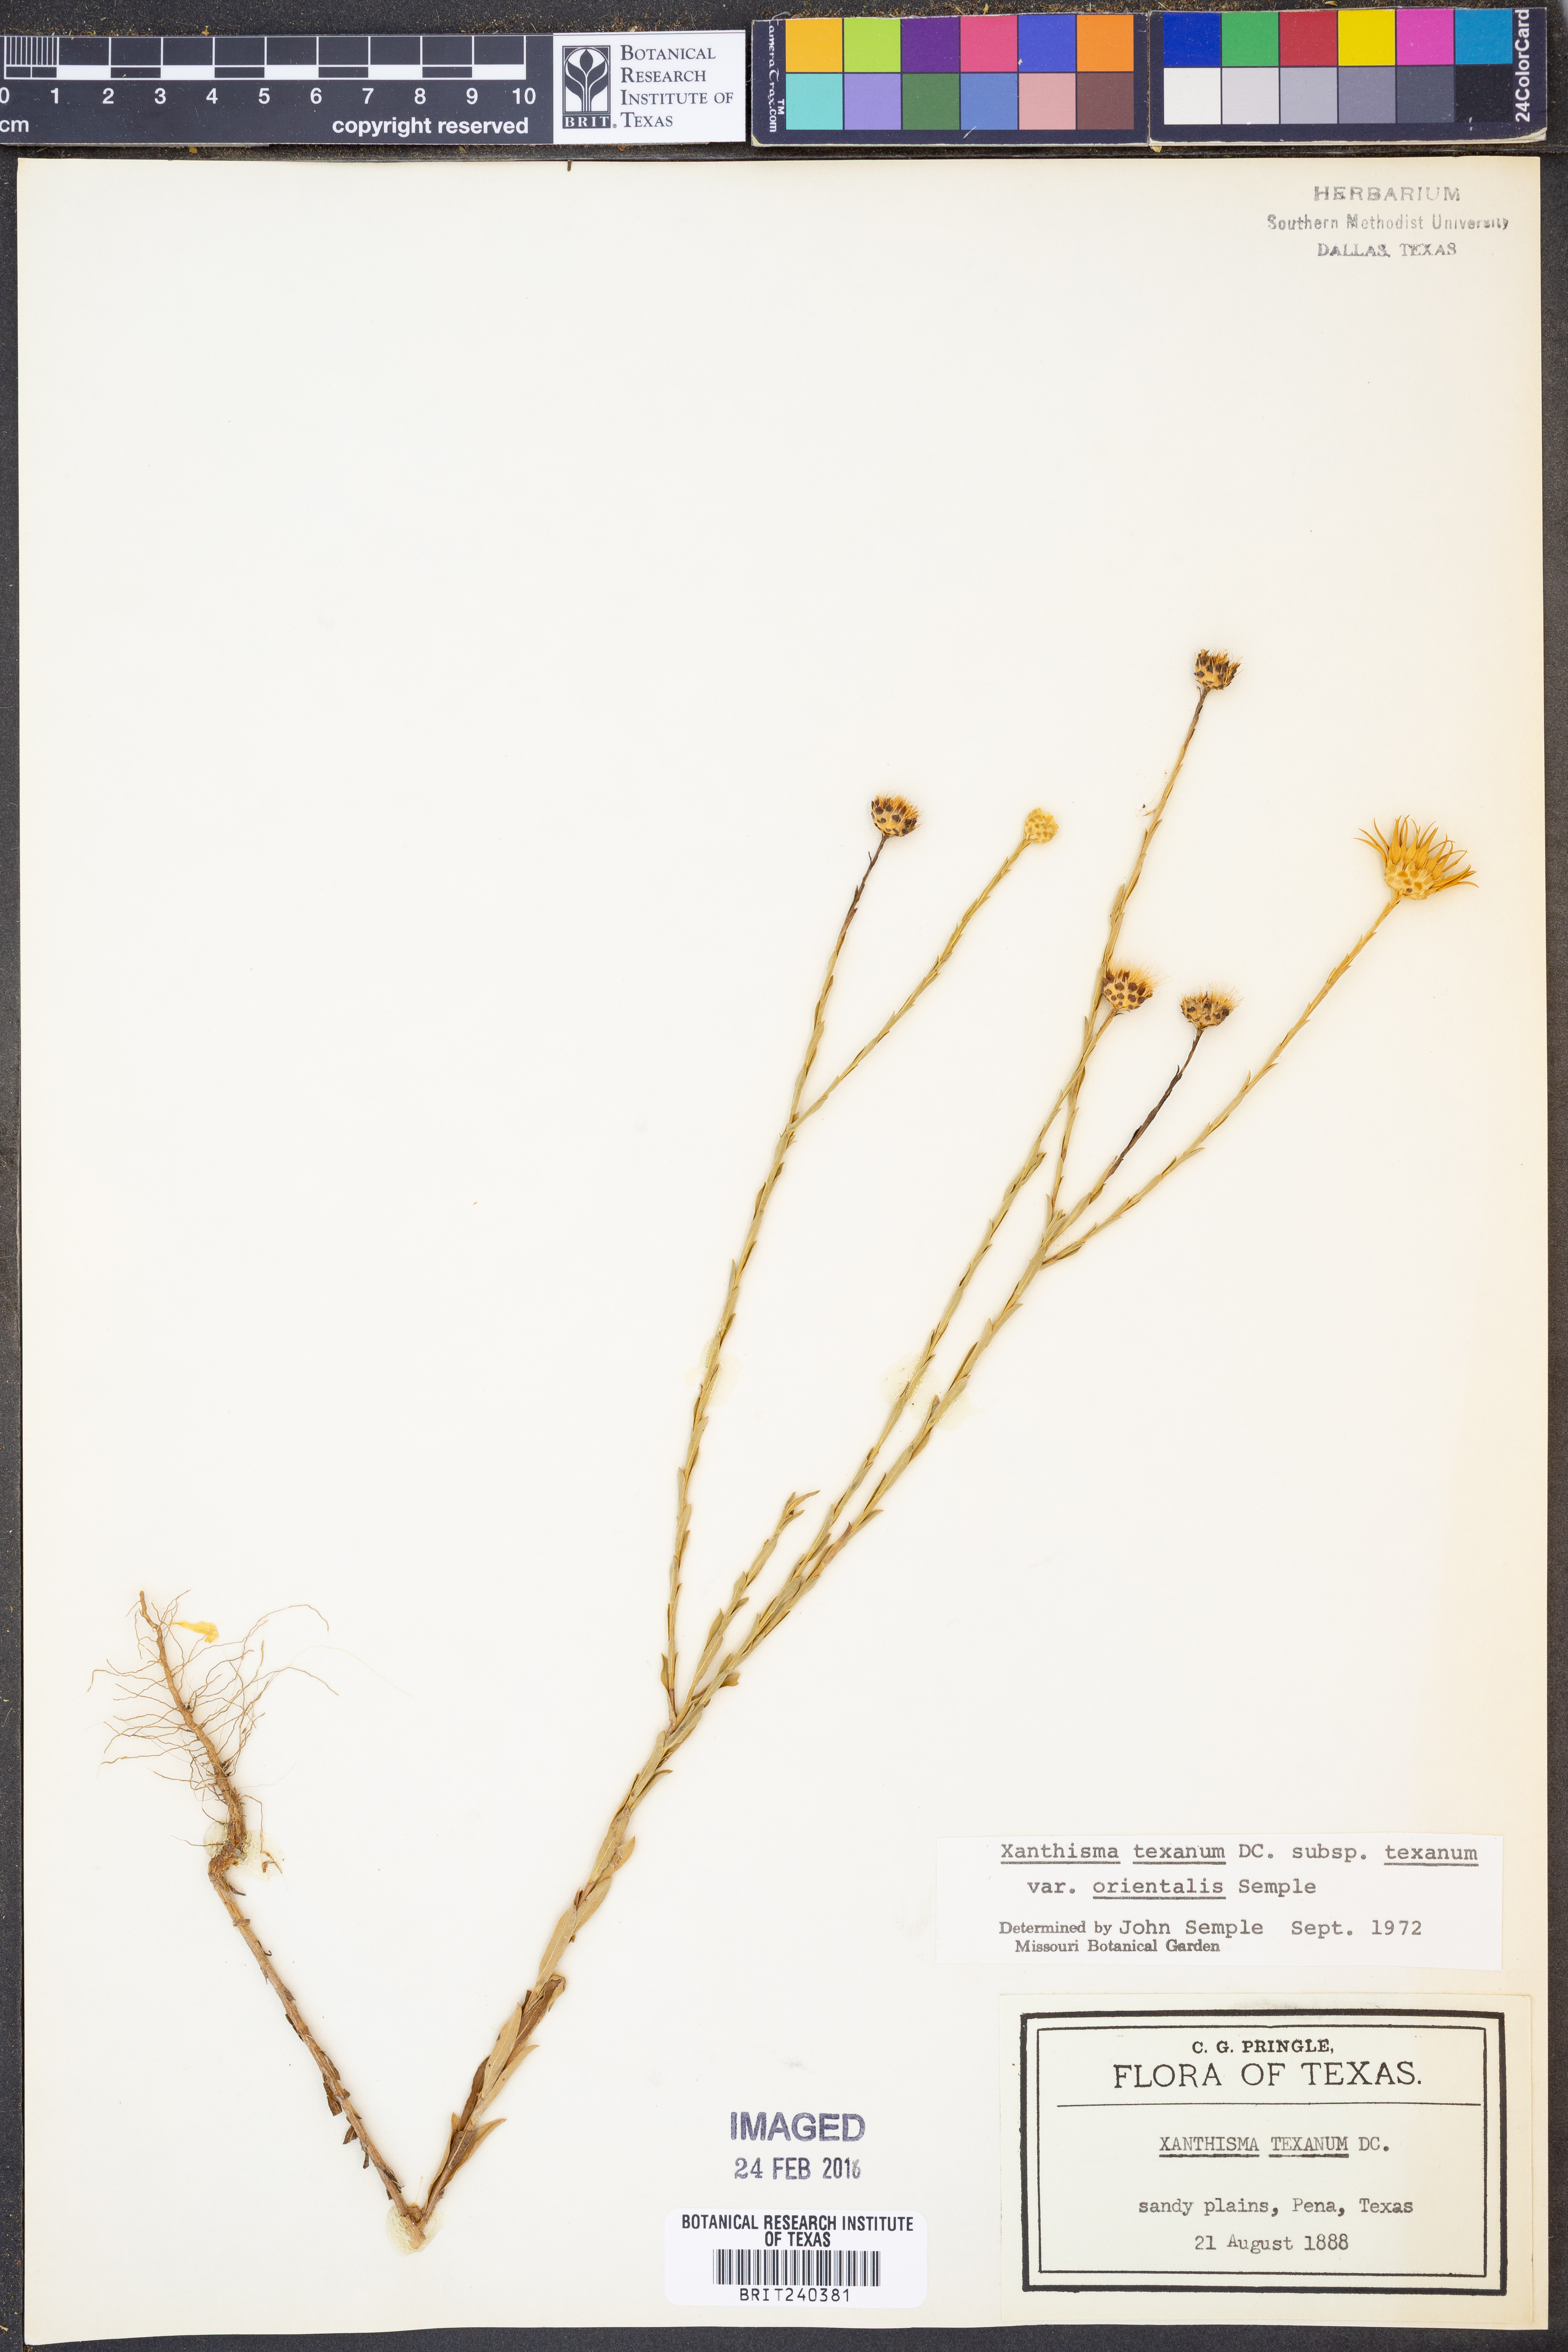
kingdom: Plantae
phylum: Tracheophyta
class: Magnoliopsida
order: Asterales
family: Asteraceae
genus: Xanthisma
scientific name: Xanthisma texanum
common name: Texas sleepy daisy
